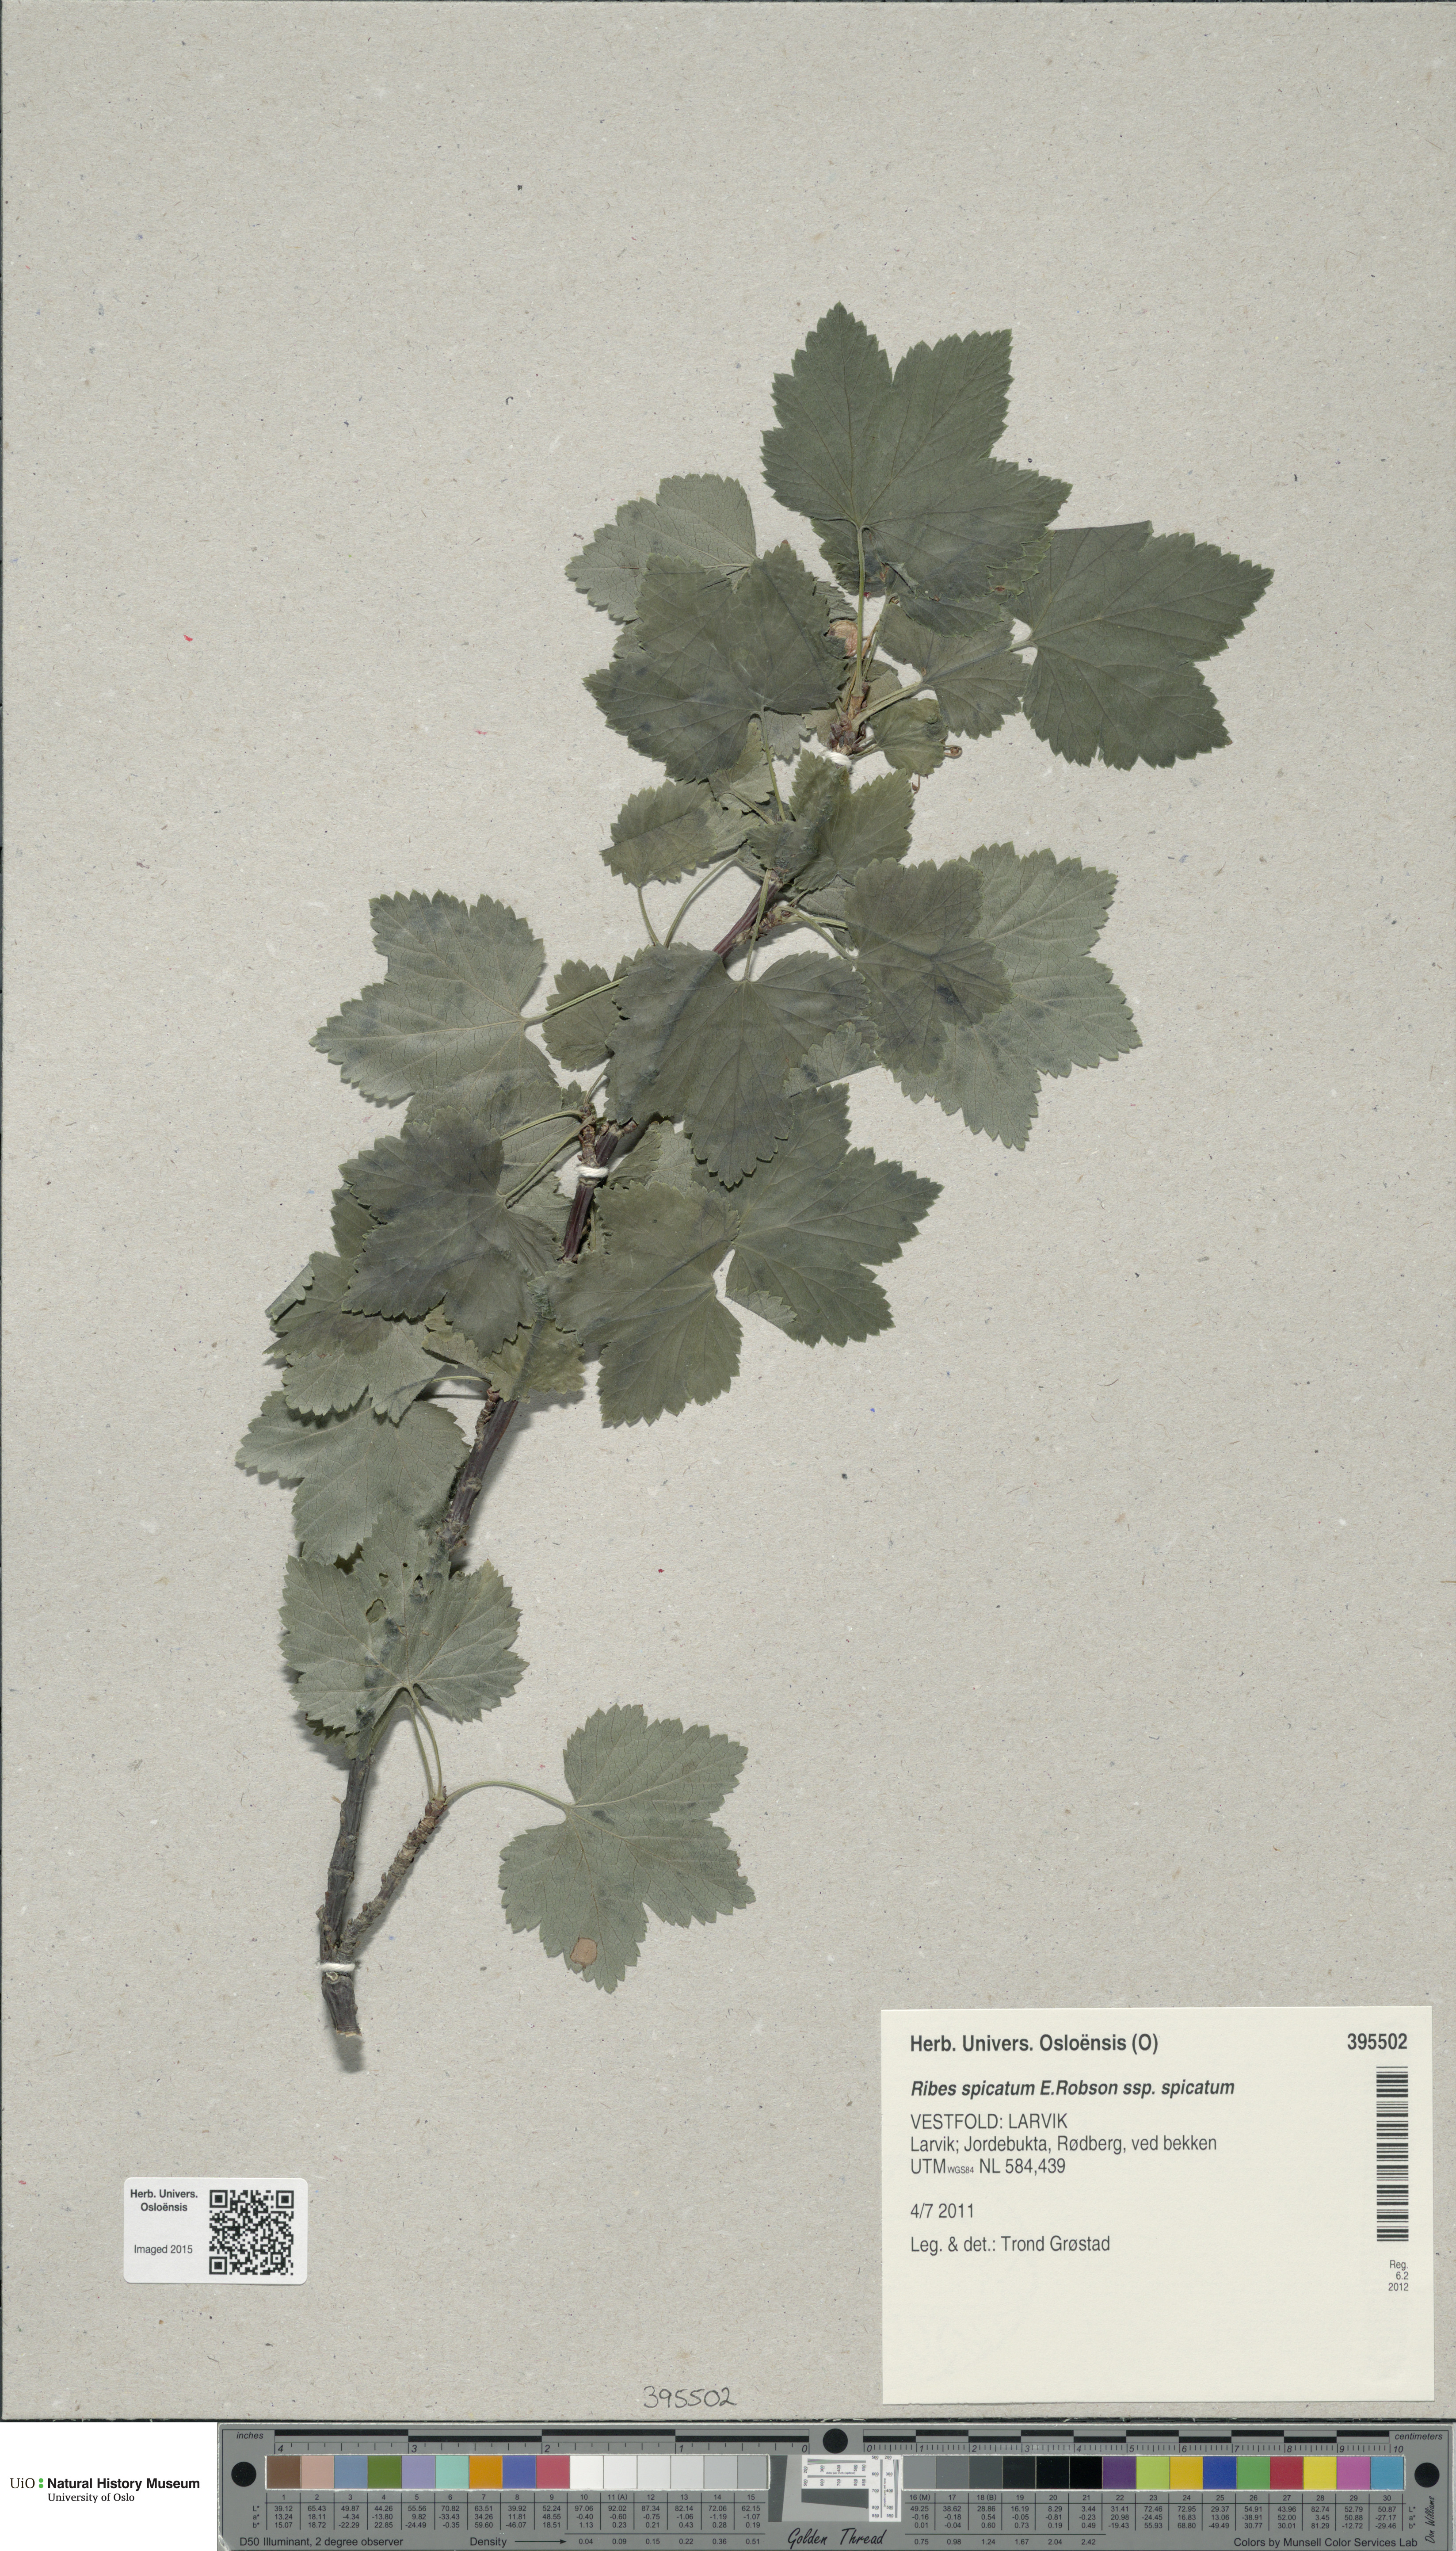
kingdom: Plantae
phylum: Tracheophyta
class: Magnoliopsida
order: Saxifragales
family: Grossulariaceae
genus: Ribes
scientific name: Ribes spicatum
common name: Downy currant
